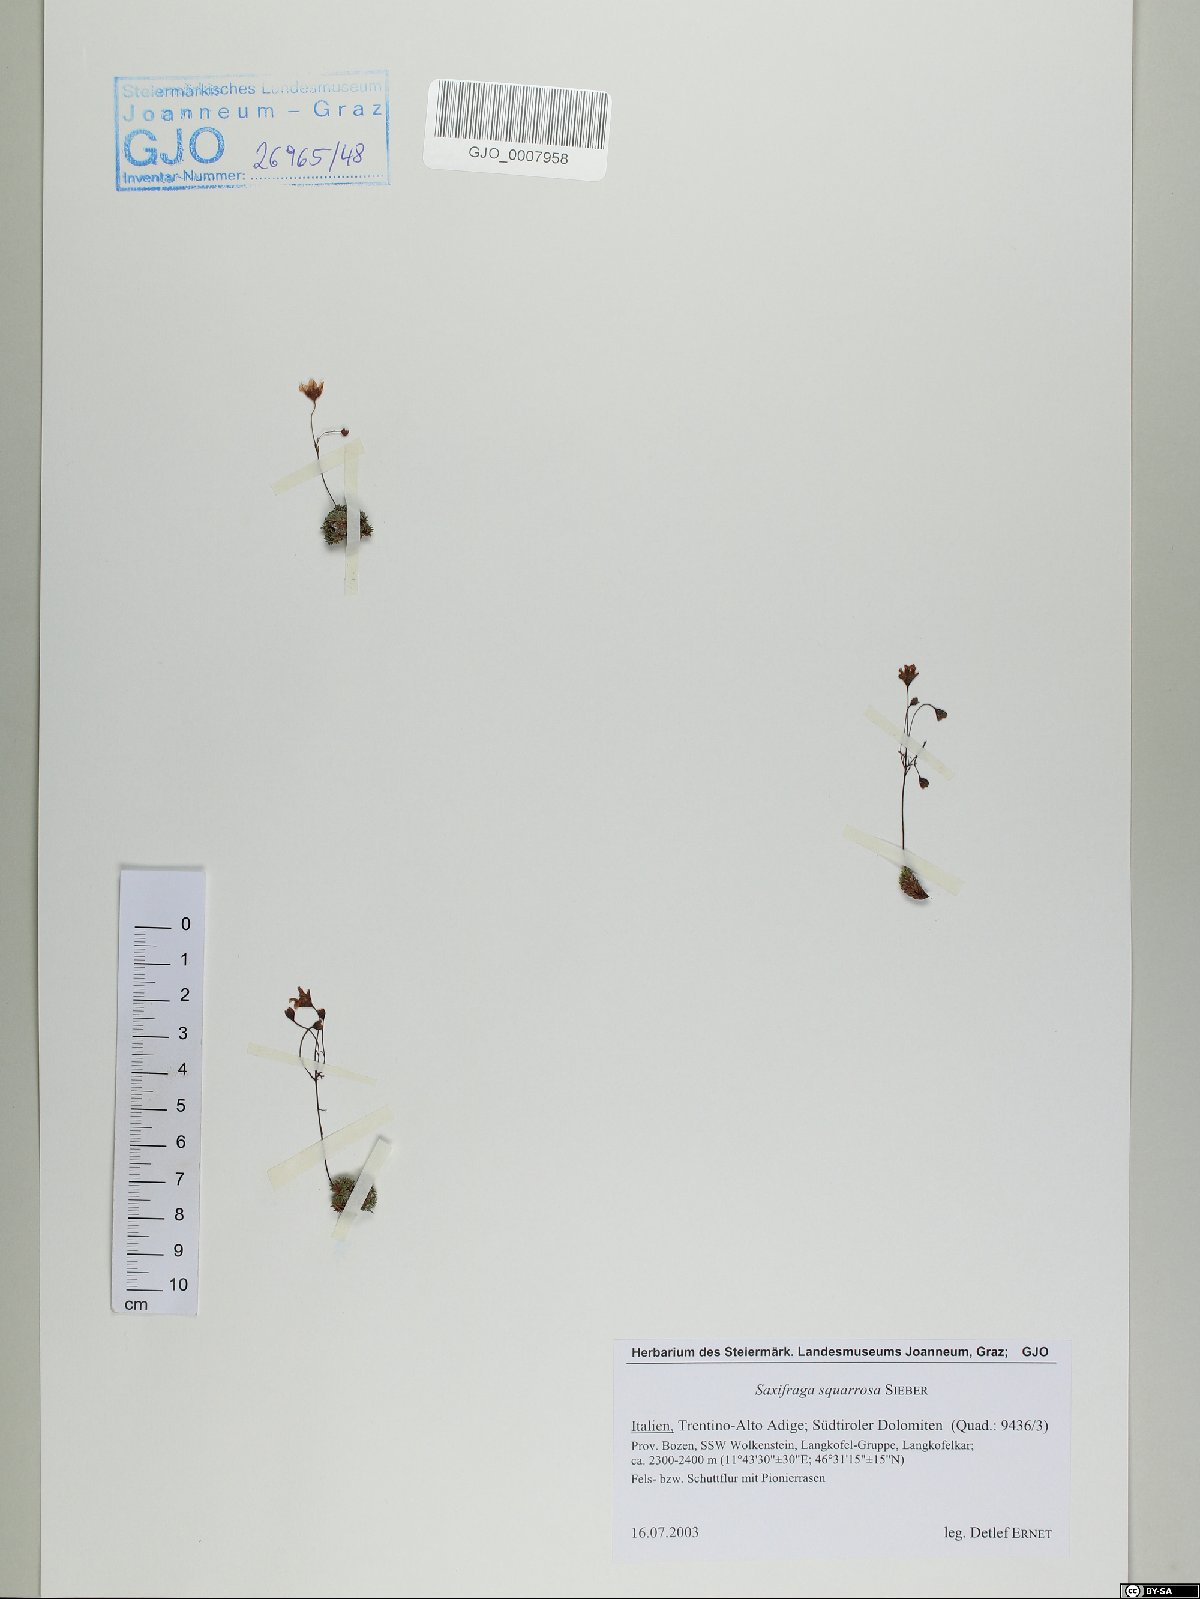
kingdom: Plantae
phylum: Tracheophyta
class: Magnoliopsida
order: Saxifragales
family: Saxifragaceae
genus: Saxifraga
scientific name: Saxifraga squarrosa
